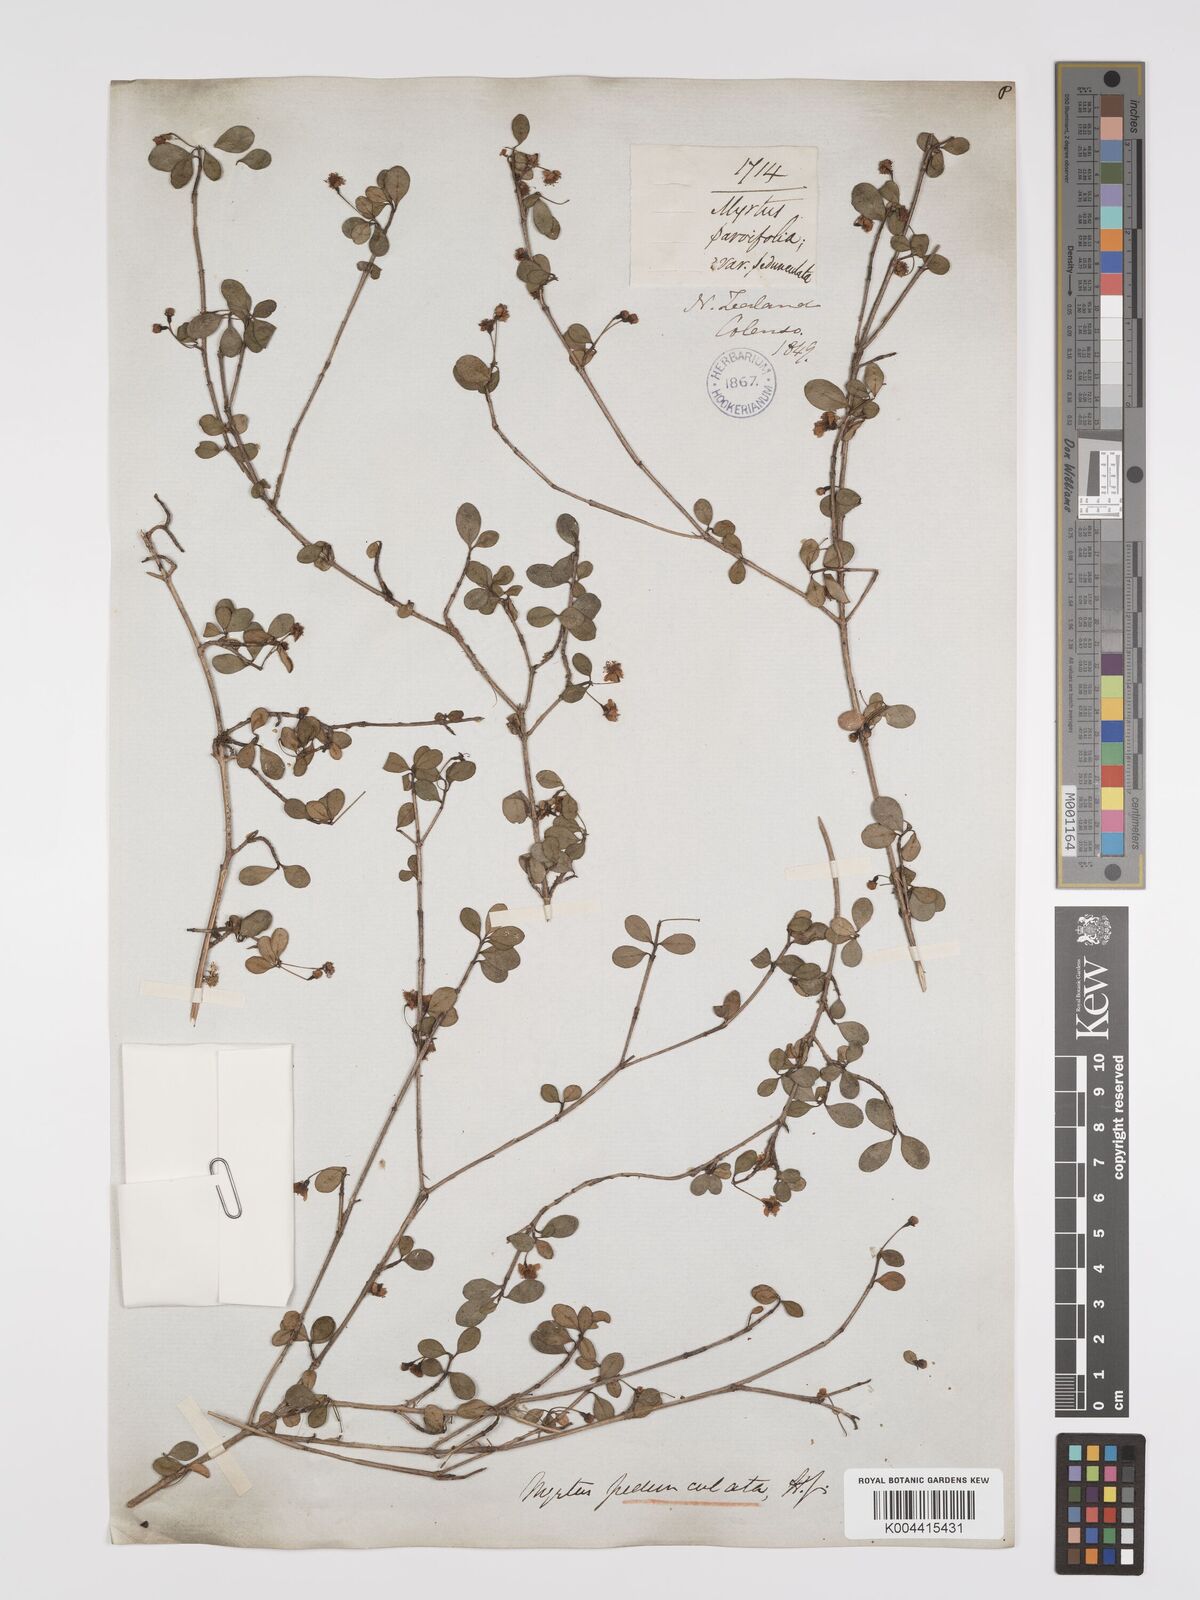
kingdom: Plantae
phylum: Tracheophyta
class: Magnoliopsida
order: Myrtales
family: Myrtaceae
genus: Neomyrtus
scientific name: Neomyrtus pedunculata
